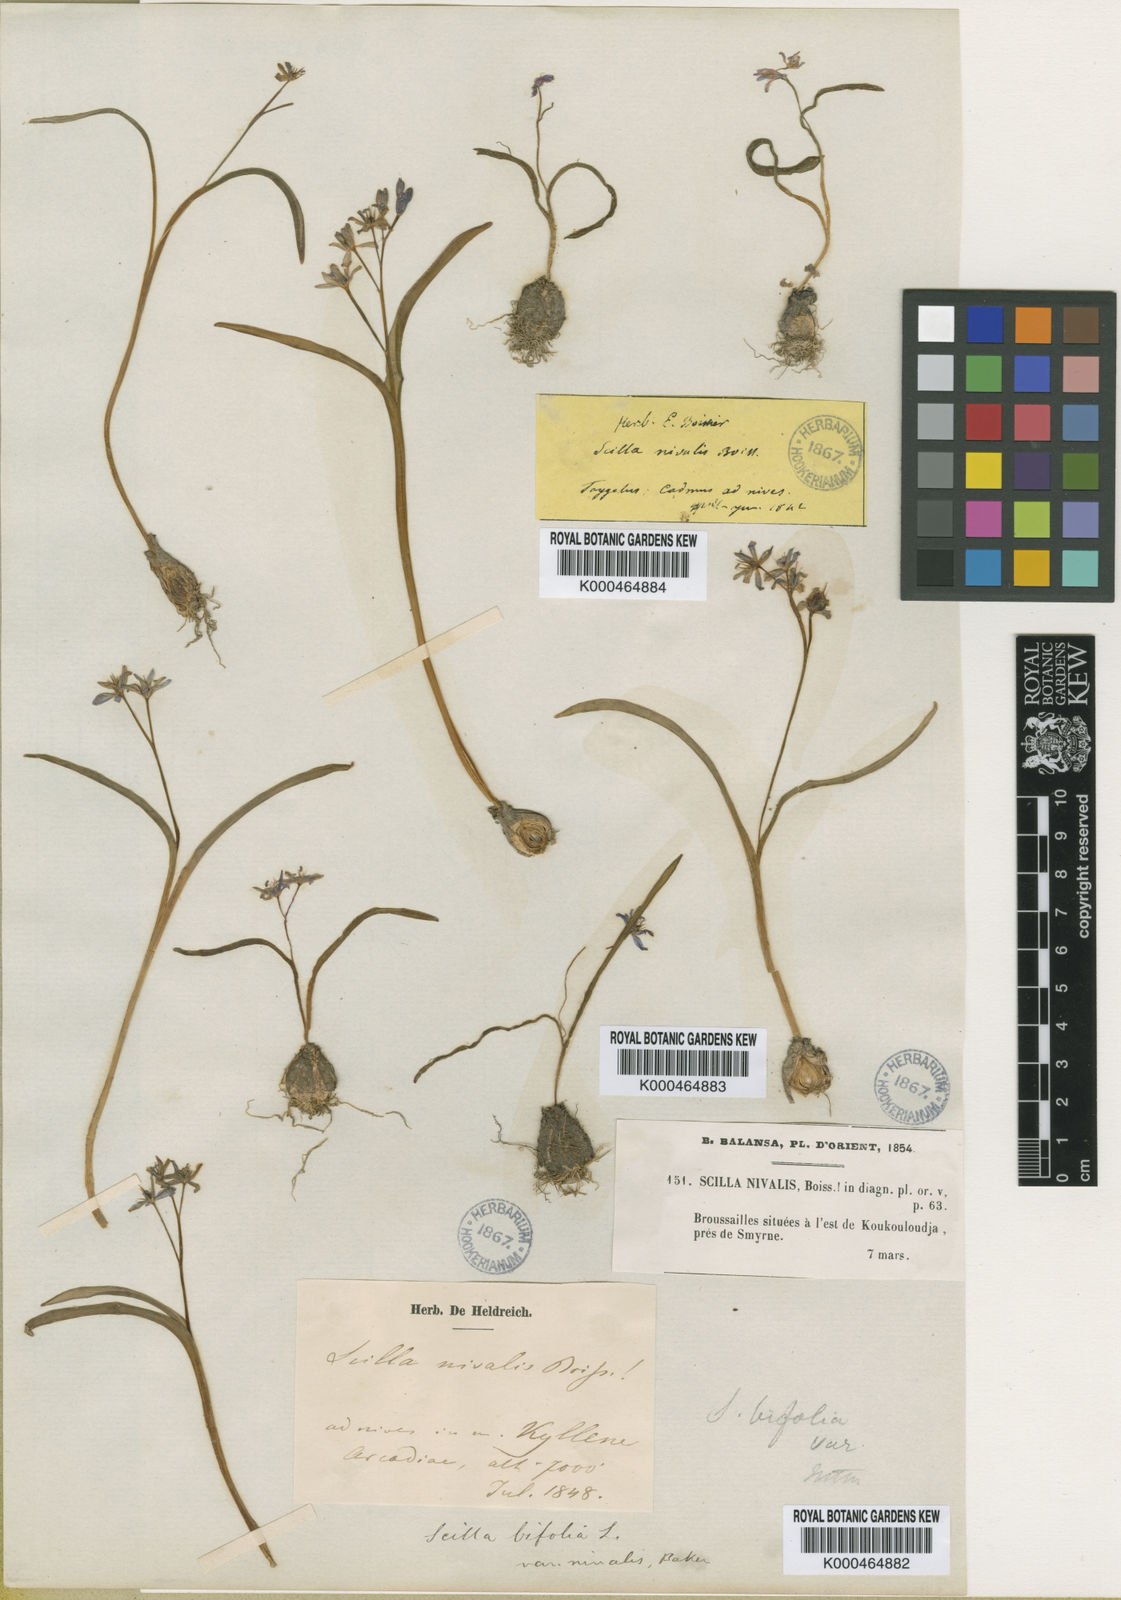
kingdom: Plantae
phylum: Tracheophyta
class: Liliopsida
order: Asparagales
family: Asparagaceae
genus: Scilla
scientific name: Scilla nivalis
